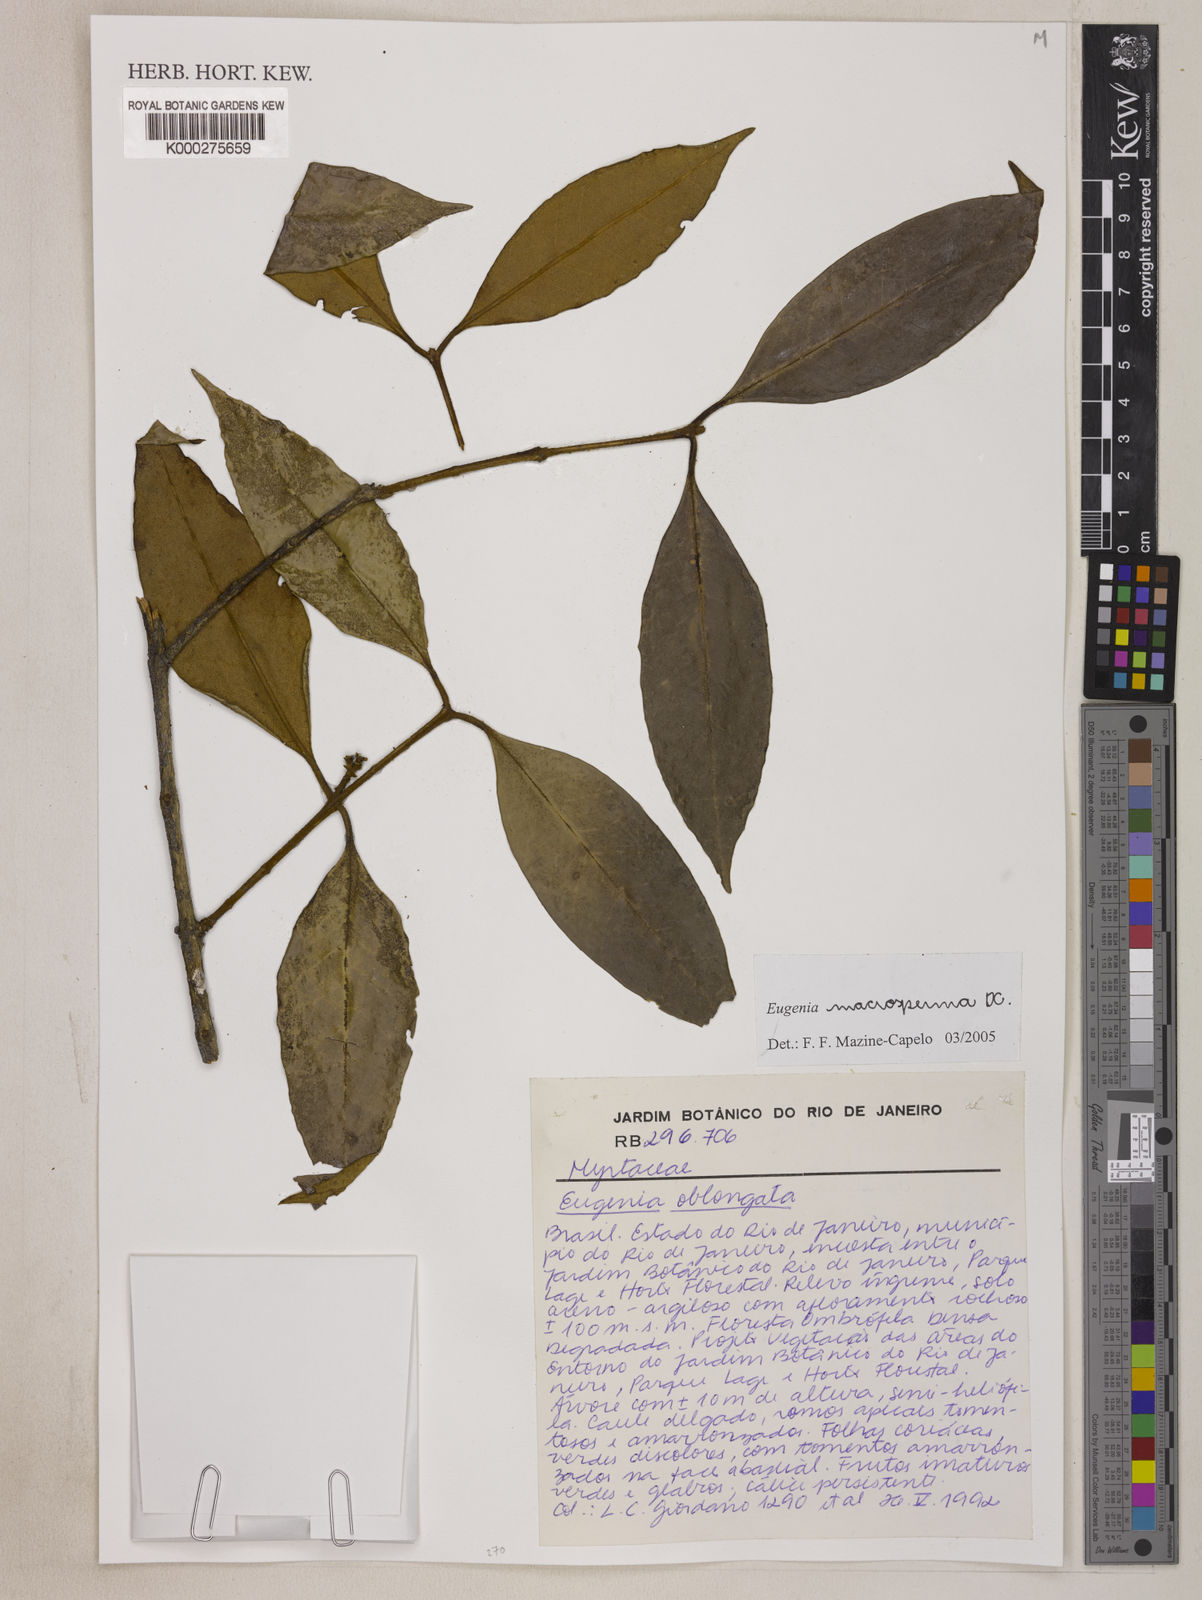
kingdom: Plantae
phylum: Tracheophyta
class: Magnoliopsida
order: Myrtales
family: Myrtaceae
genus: Eugenia
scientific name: Eugenia macrosperma
